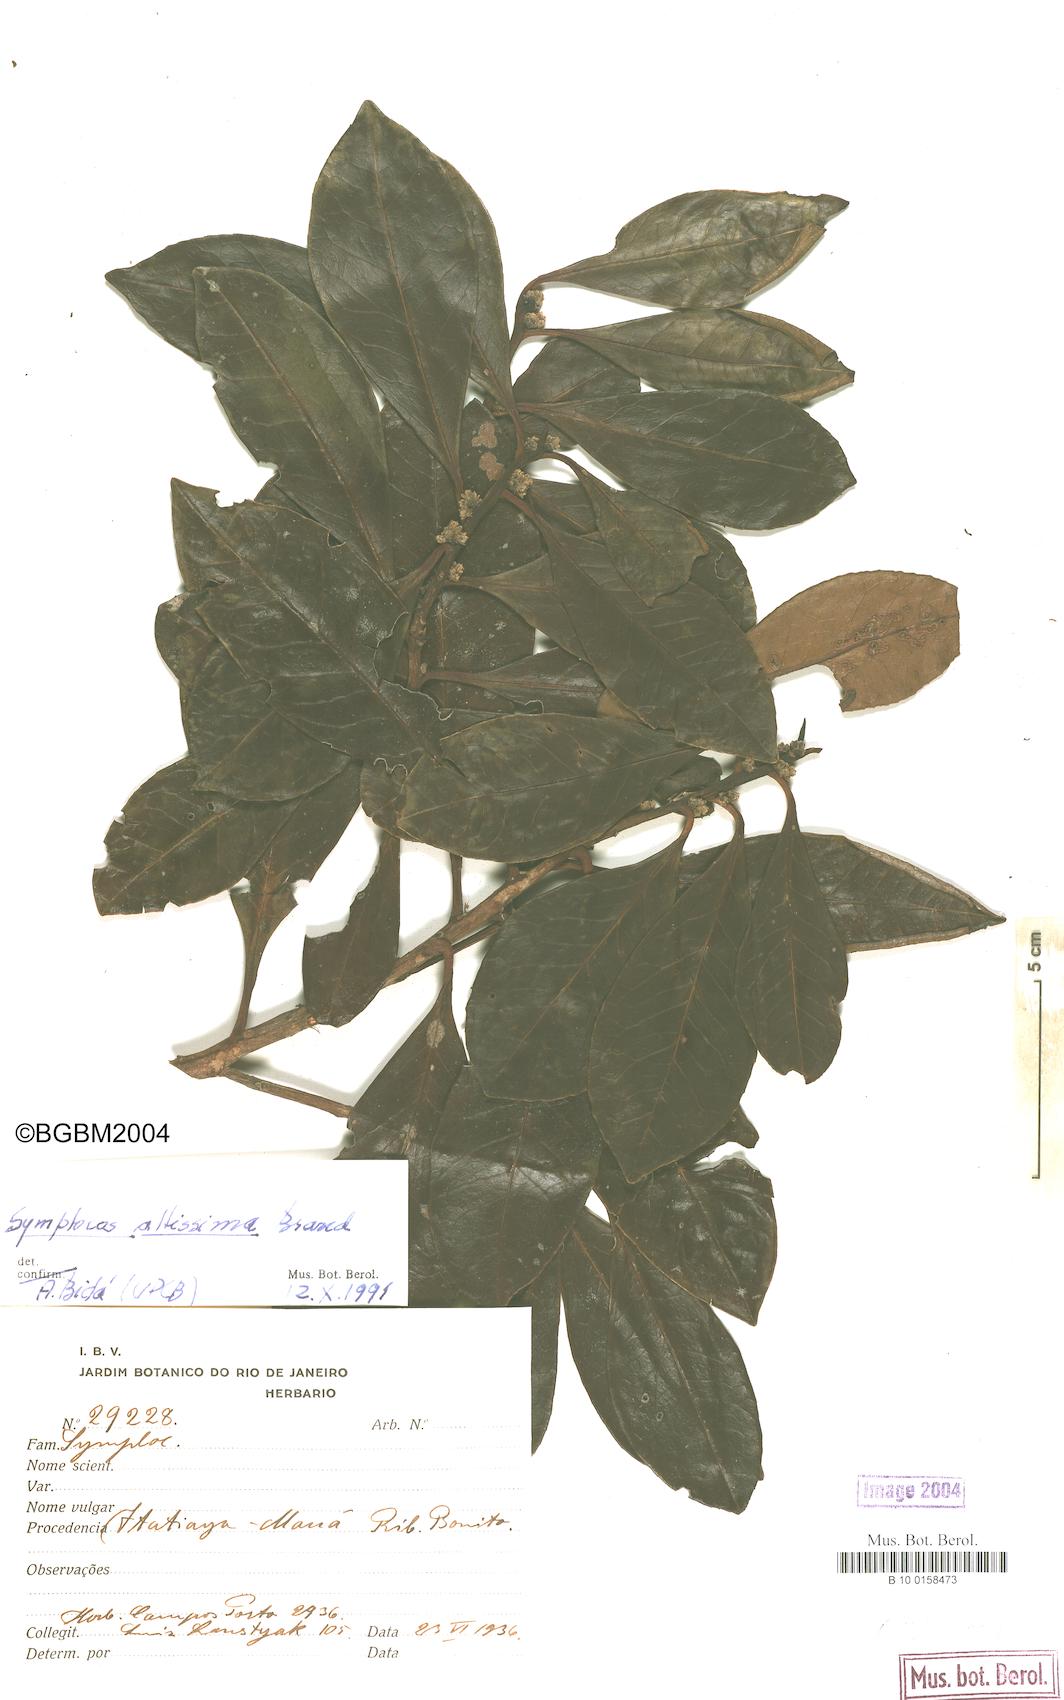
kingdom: Plantae
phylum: Tracheophyta
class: Magnoliopsida
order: Ericales
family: Symplocaceae
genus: Symplocos
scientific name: Symplocos altissima
